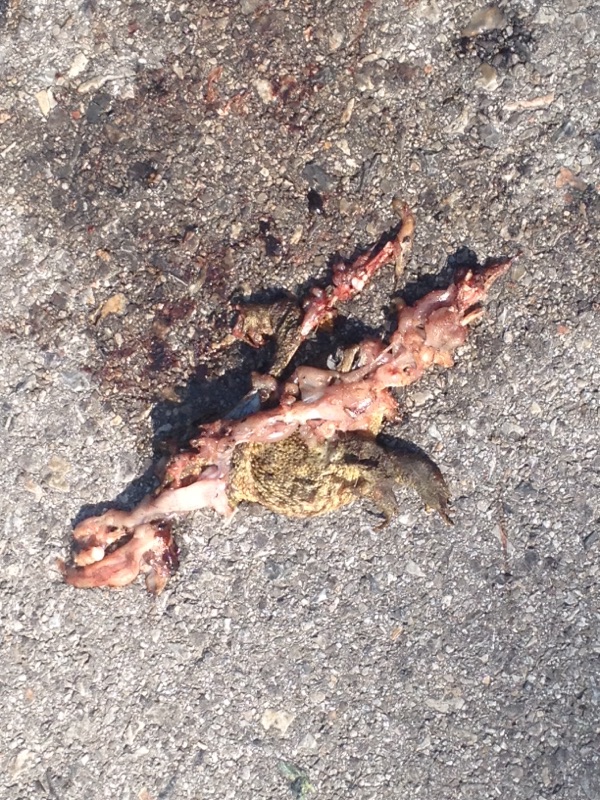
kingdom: Animalia
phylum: Chordata
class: Amphibia
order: Anura
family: Bufonidae
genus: Bufo
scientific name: Bufo bufo
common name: Common toad
